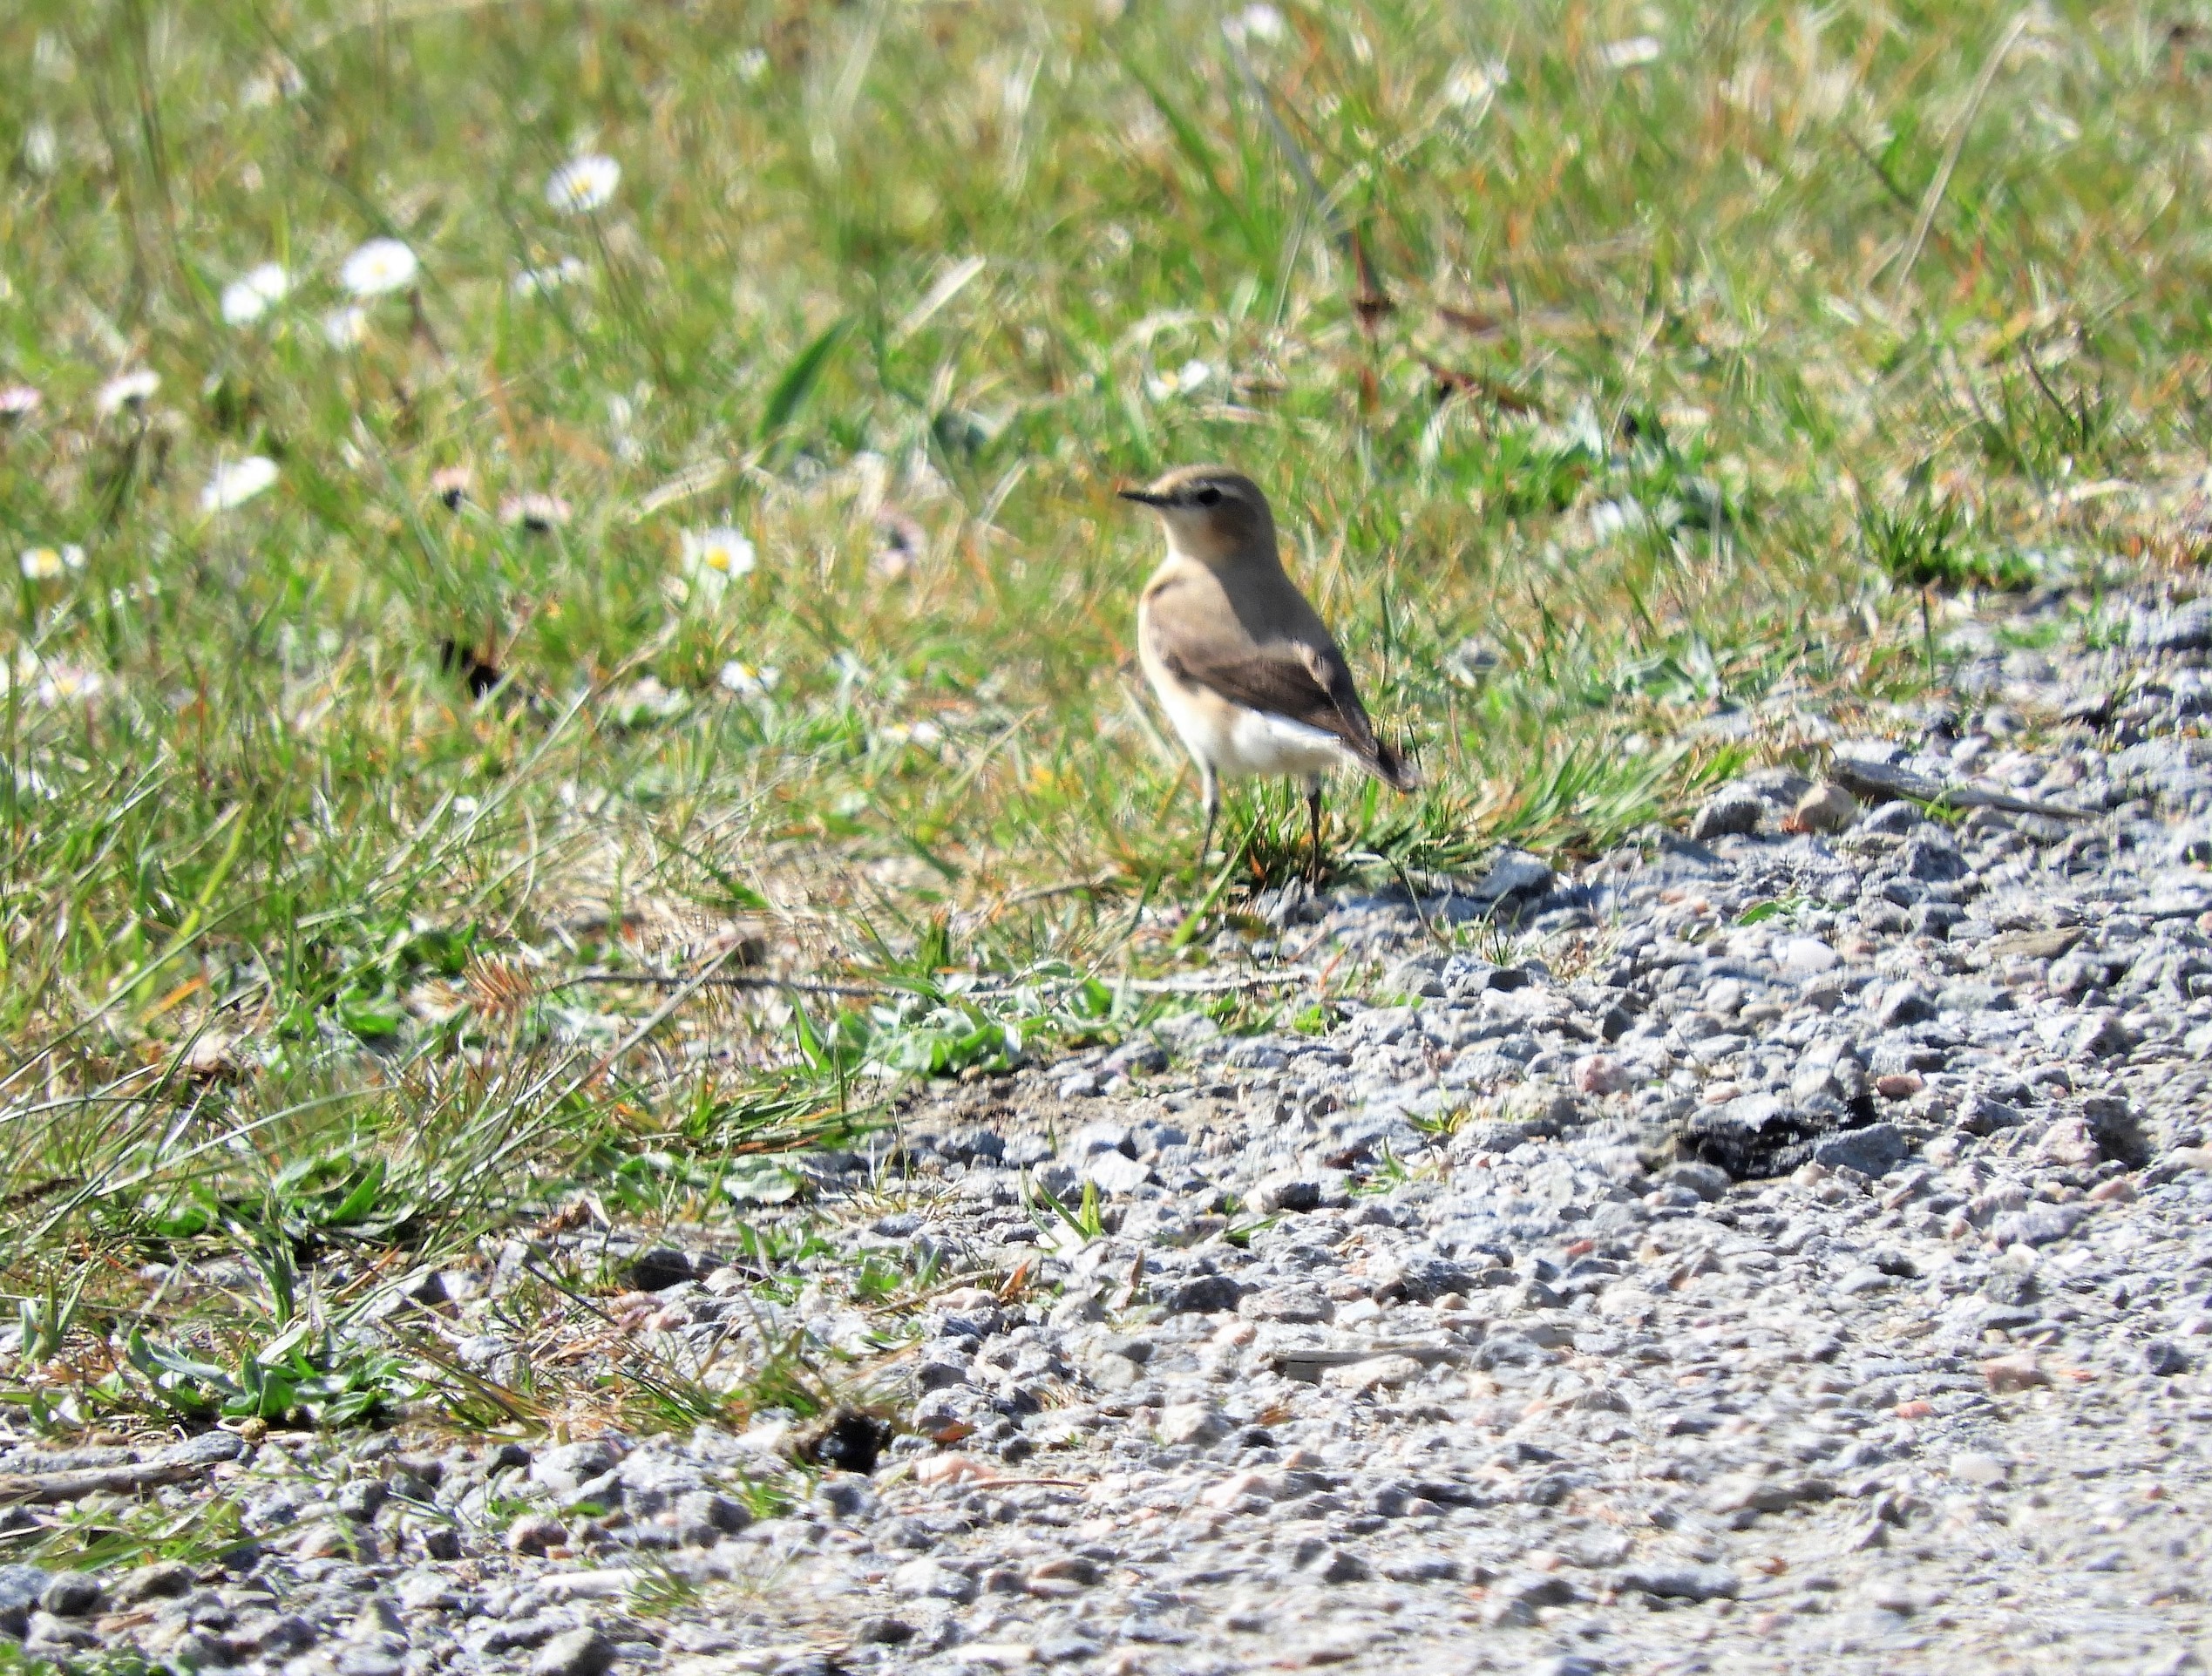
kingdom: Animalia
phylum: Chordata
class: Aves
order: Passeriformes
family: Muscicapidae
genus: Oenanthe
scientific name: Oenanthe oenanthe
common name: Stenpikker
